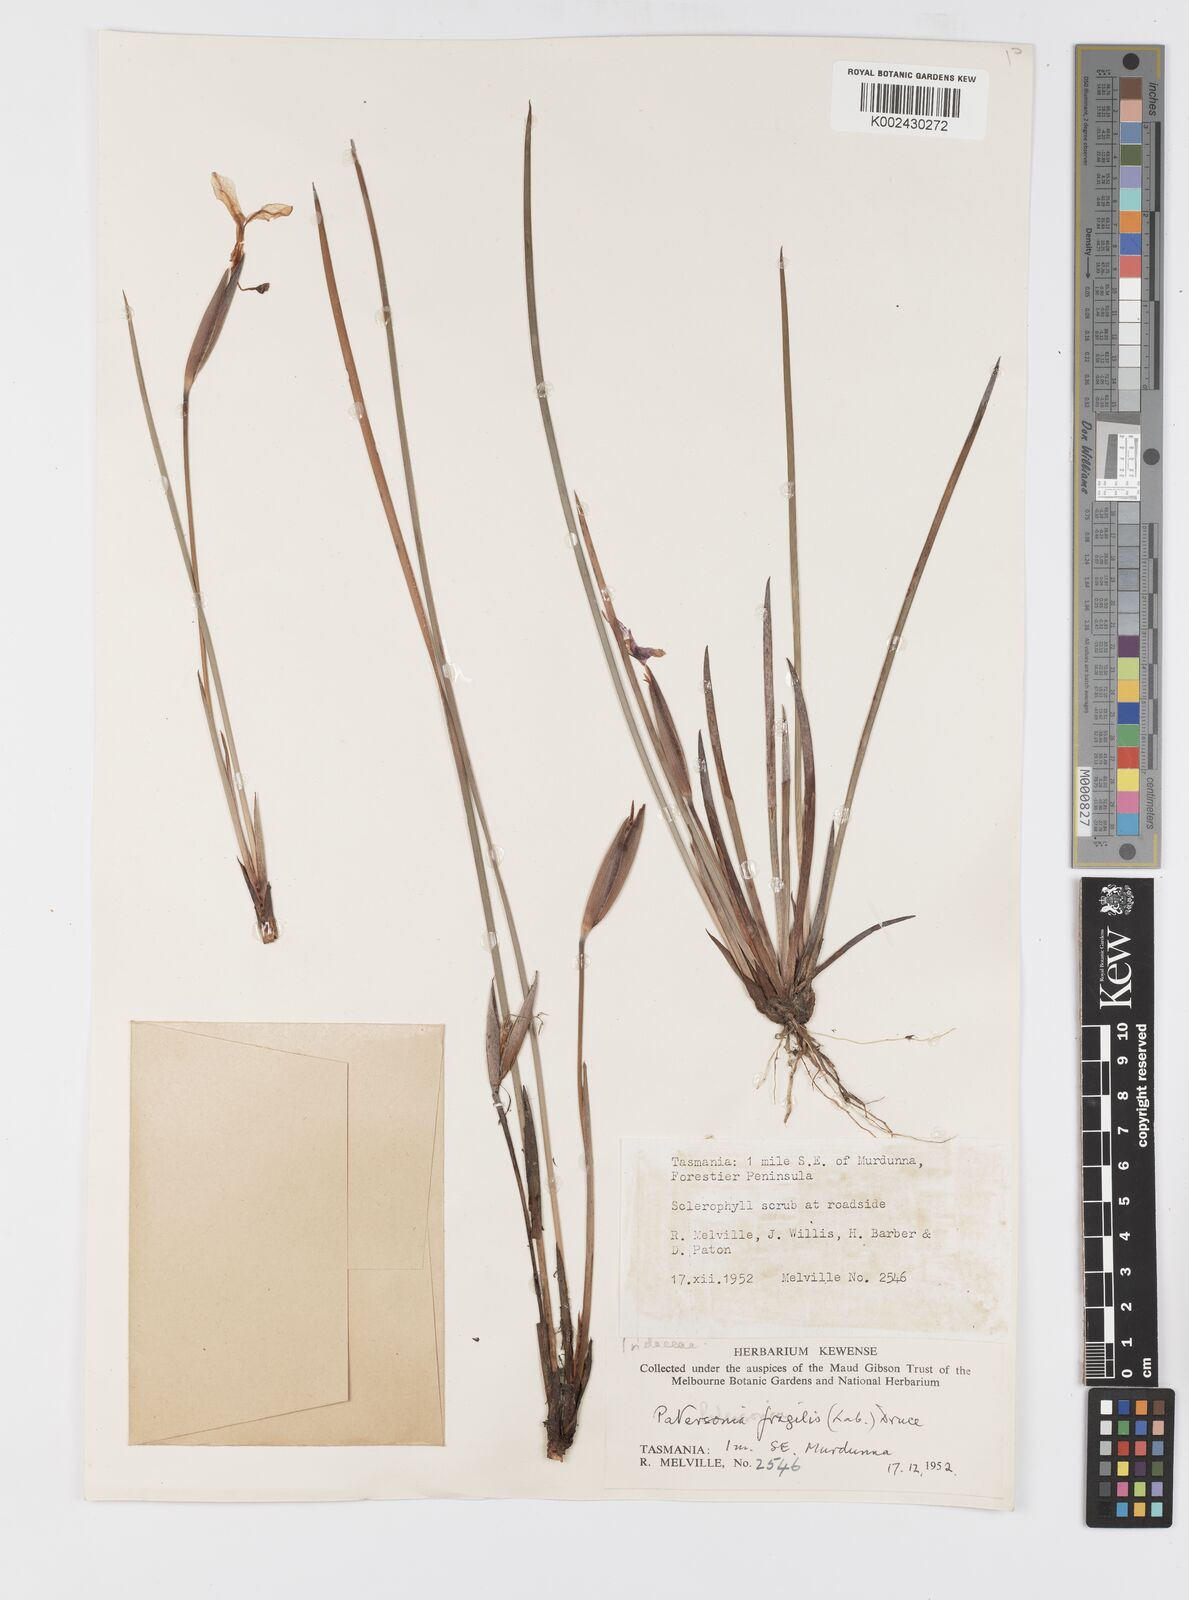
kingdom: Plantae
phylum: Tracheophyta
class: Liliopsida
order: Asparagales
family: Iridaceae
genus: Patersonia
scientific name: Patersonia fragilis
